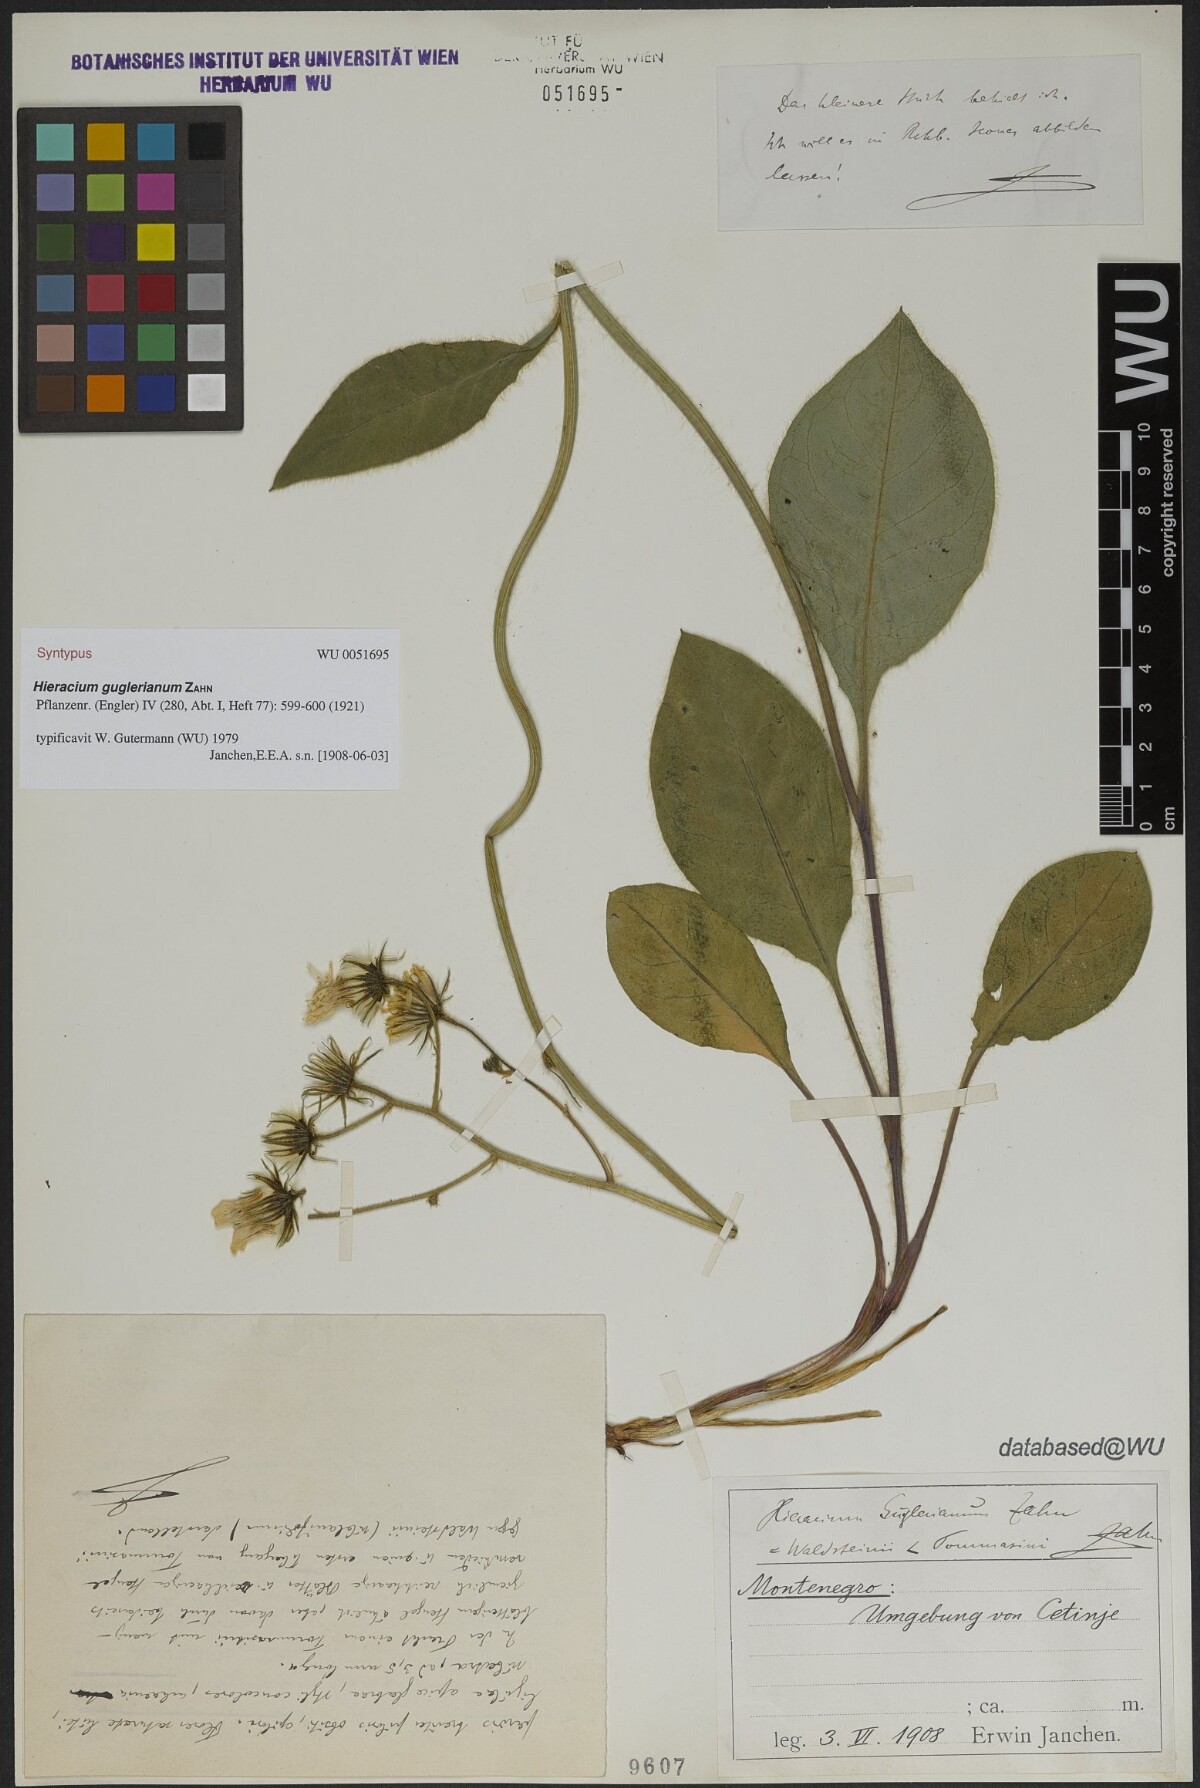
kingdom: Plantae
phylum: Tracheophyta
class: Magnoliopsida
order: Asterales
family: Asteraceae
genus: Hieracium
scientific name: Hieracium guglerianum
